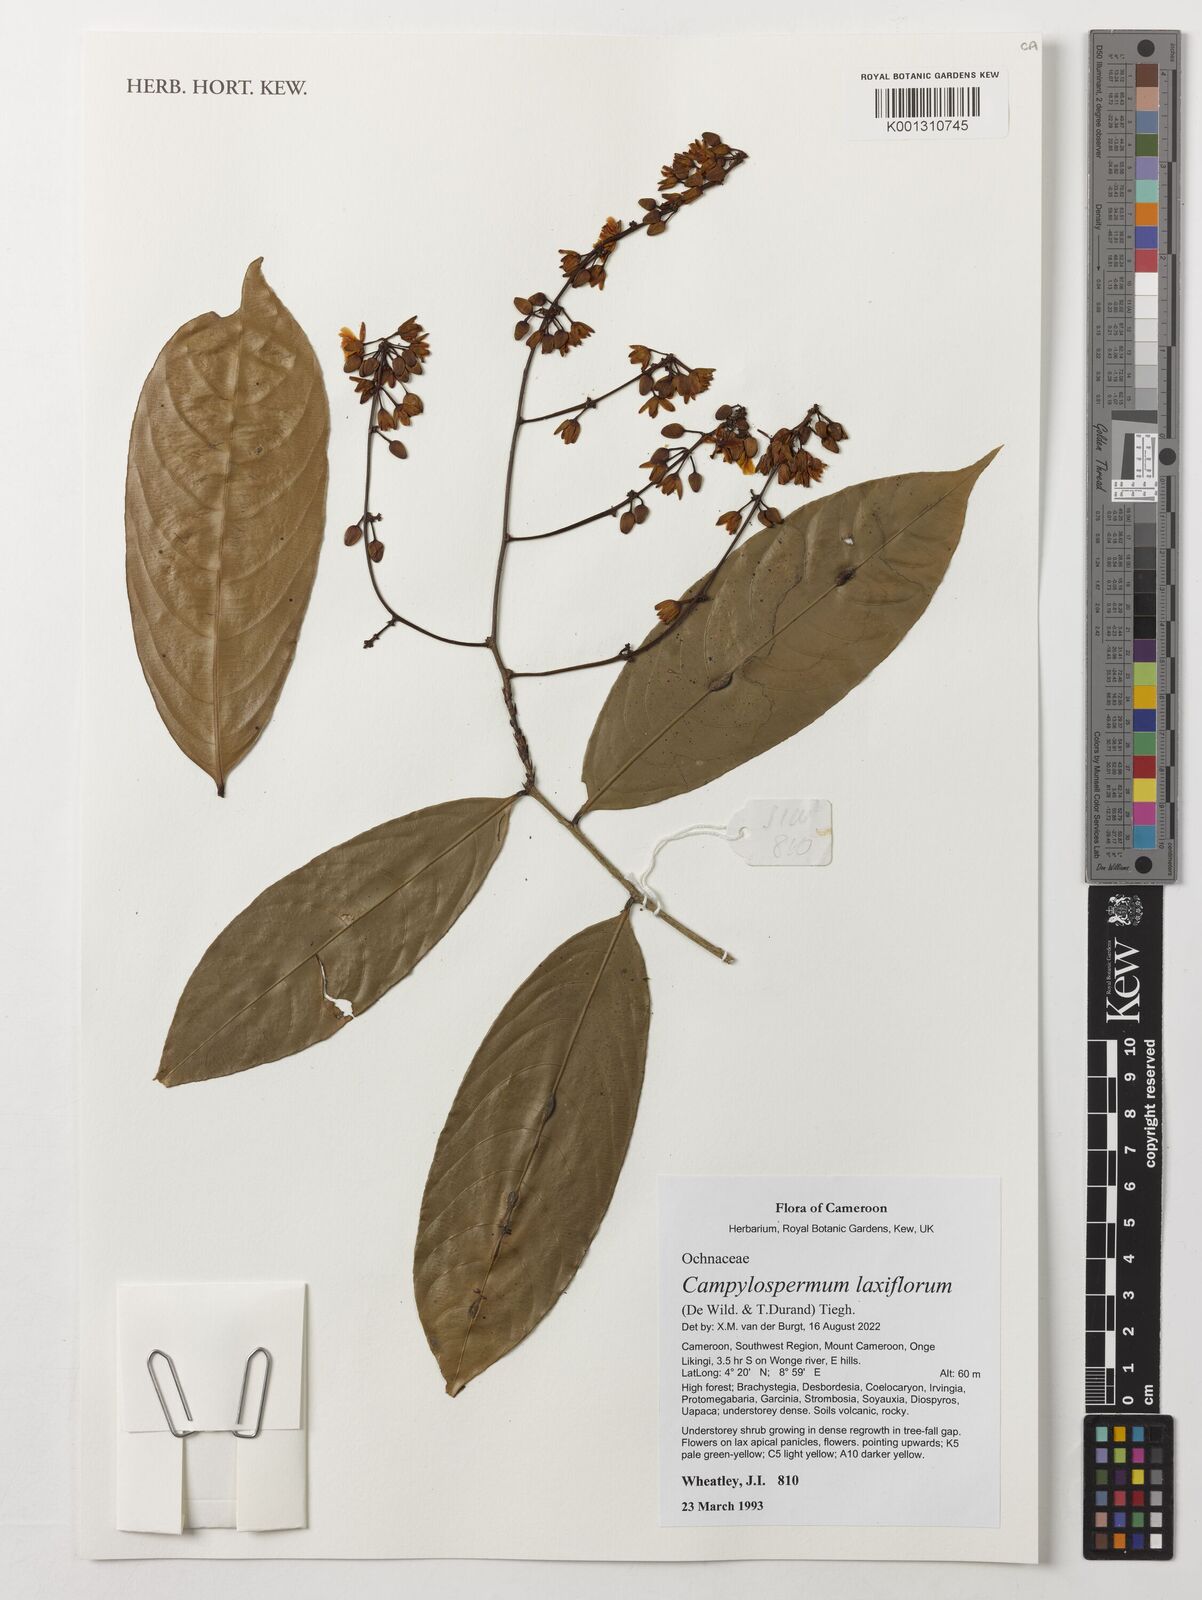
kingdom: Plantae
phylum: Tracheophyta
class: Magnoliopsida
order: Malpighiales
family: Ochnaceae
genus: Campylospermum
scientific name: Campylospermum laxiflorum
